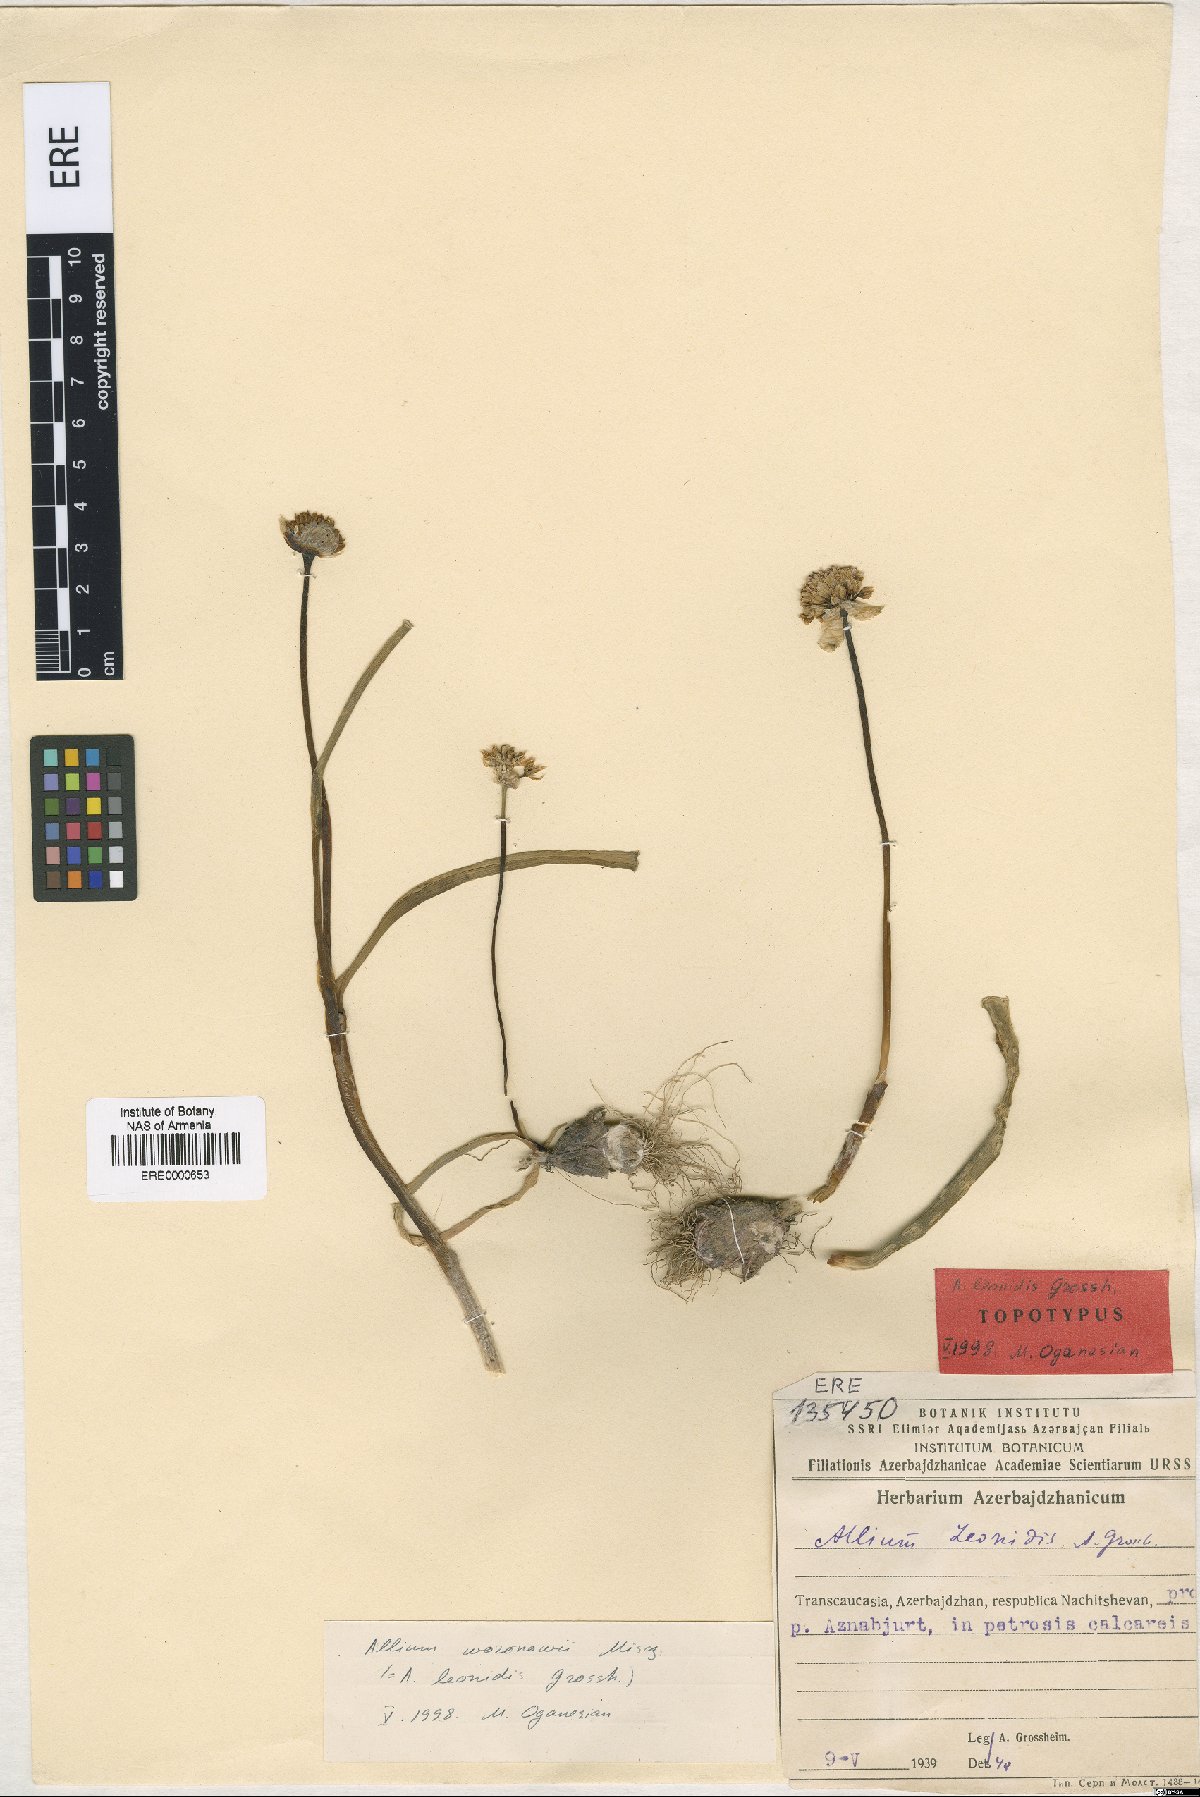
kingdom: Plantae
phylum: Tracheophyta
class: Liliopsida
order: Asparagales
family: Amaryllidaceae
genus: Allium
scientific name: Allium woronowii
